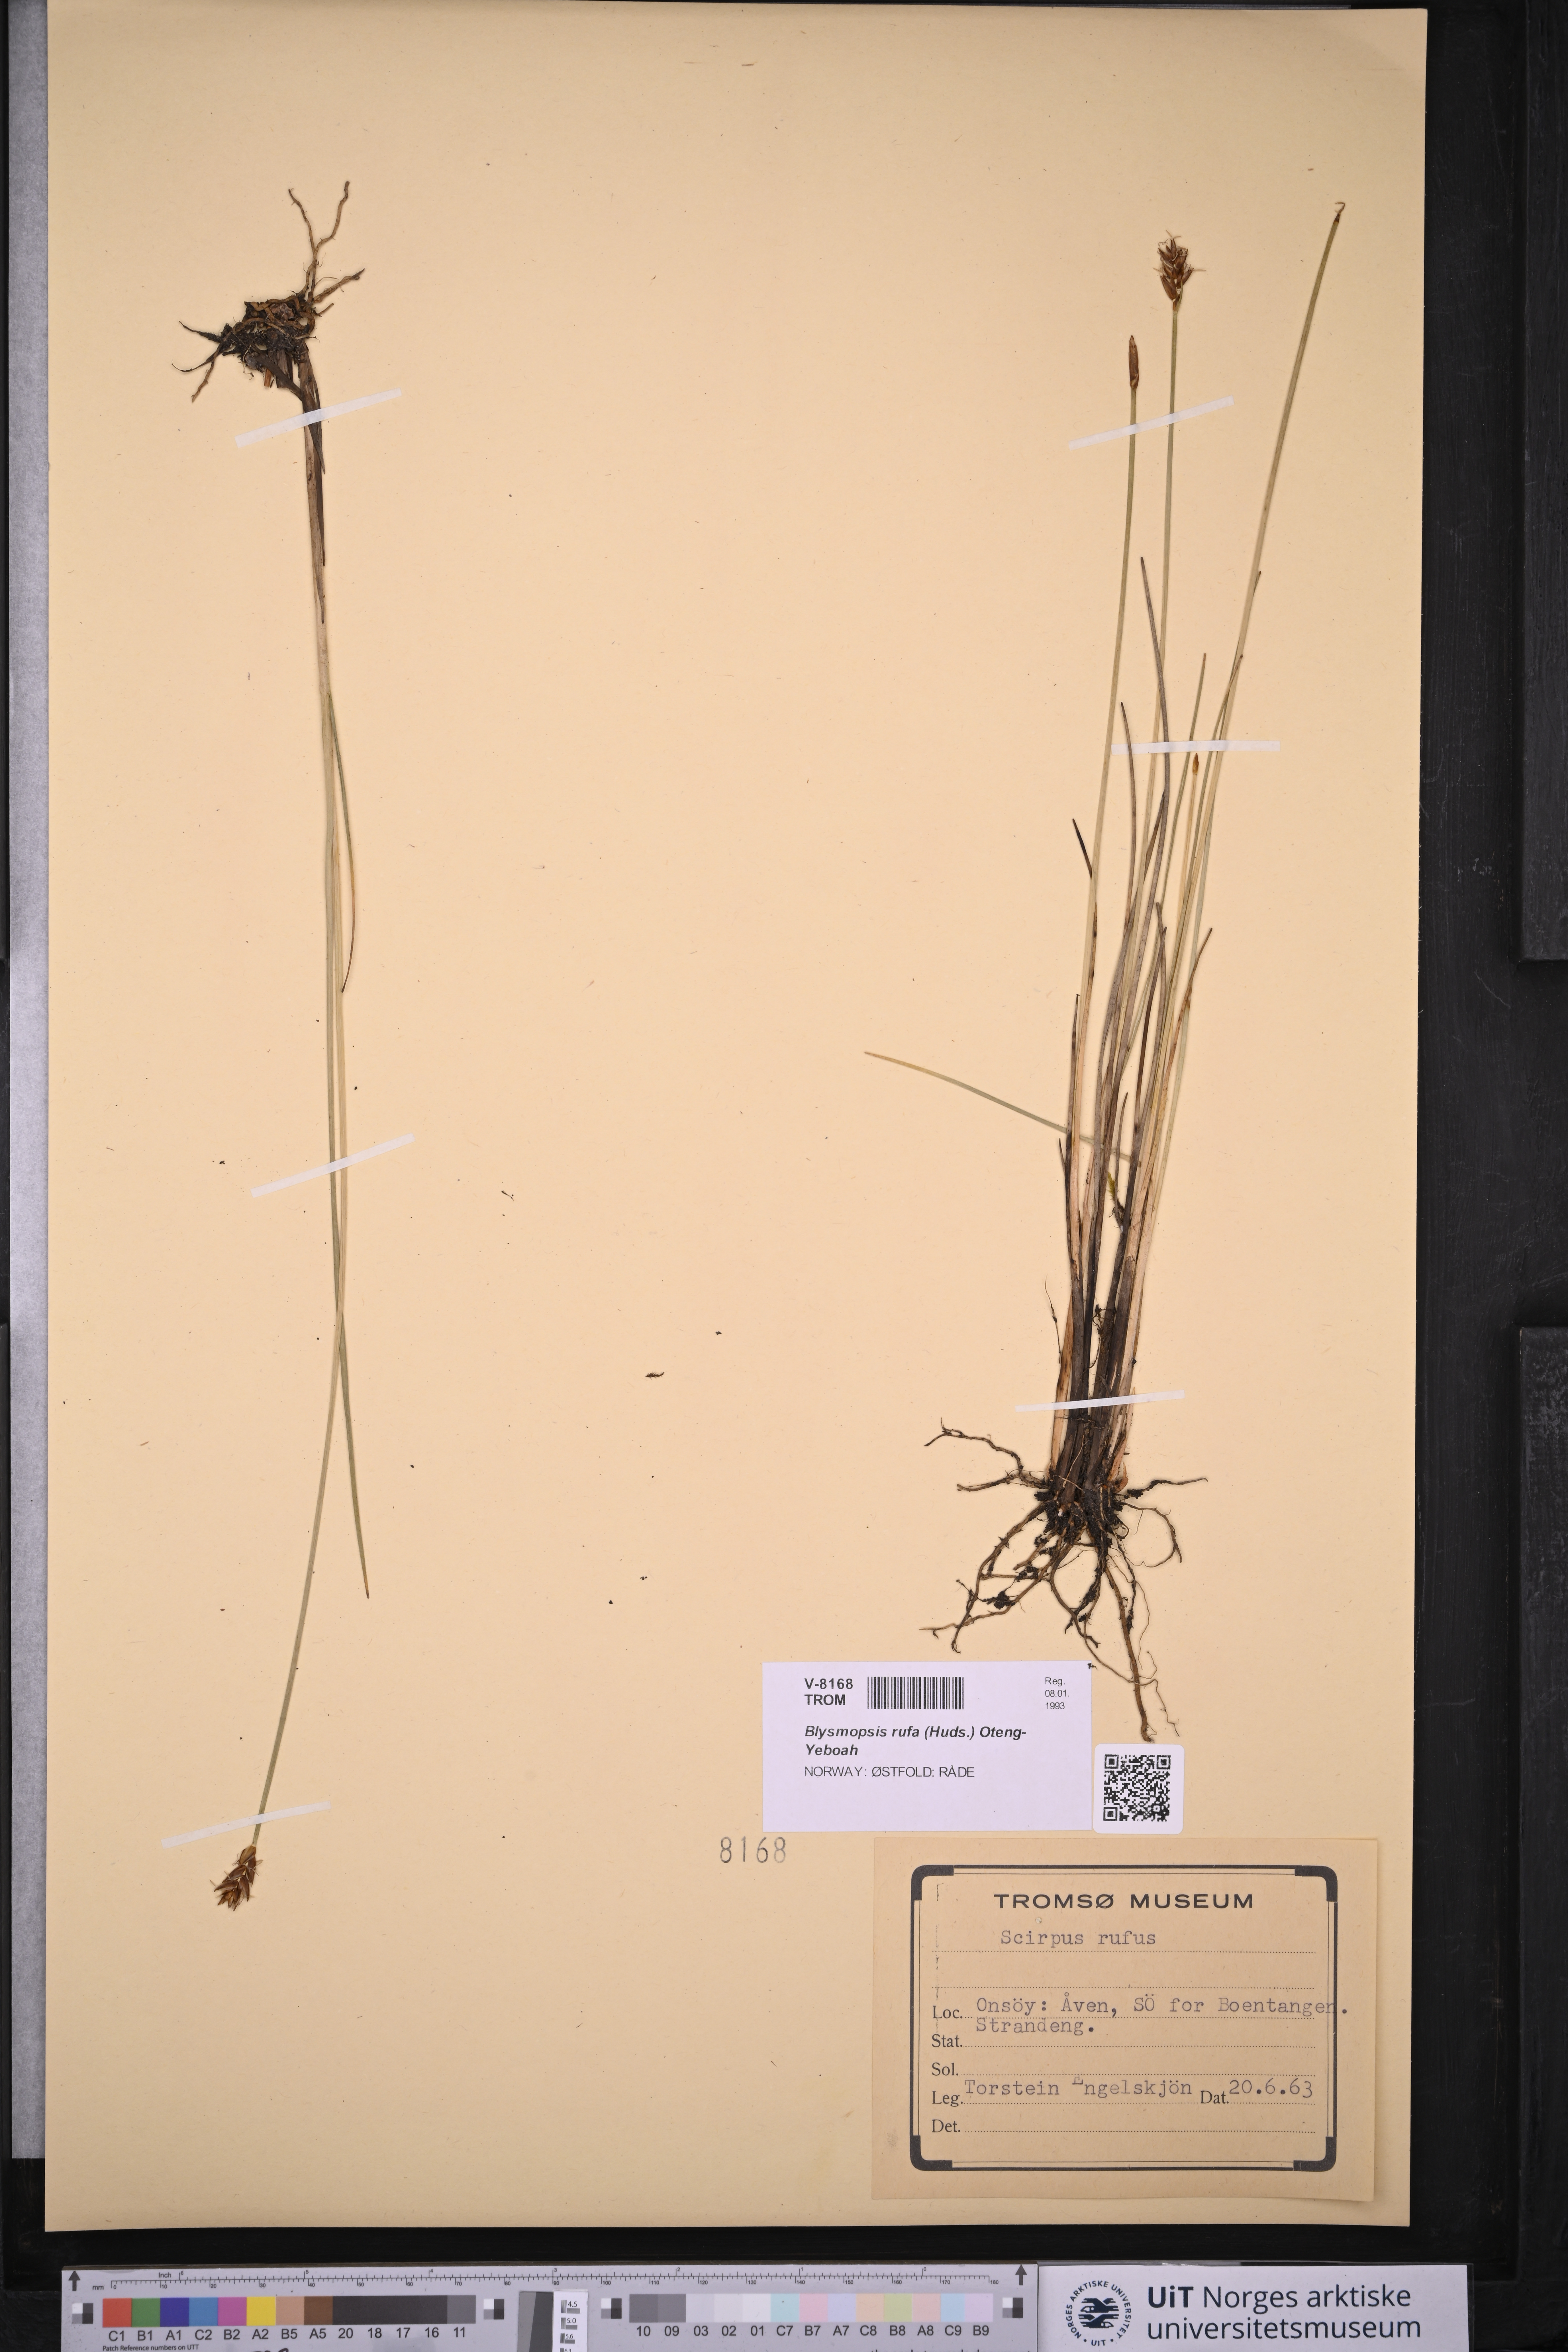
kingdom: Plantae
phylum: Tracheophyta
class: Liliopsida
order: Poales
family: Cyperaceae
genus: Blysmus
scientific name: Blysmus rufus
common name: Saltmarsh flat-sedge
